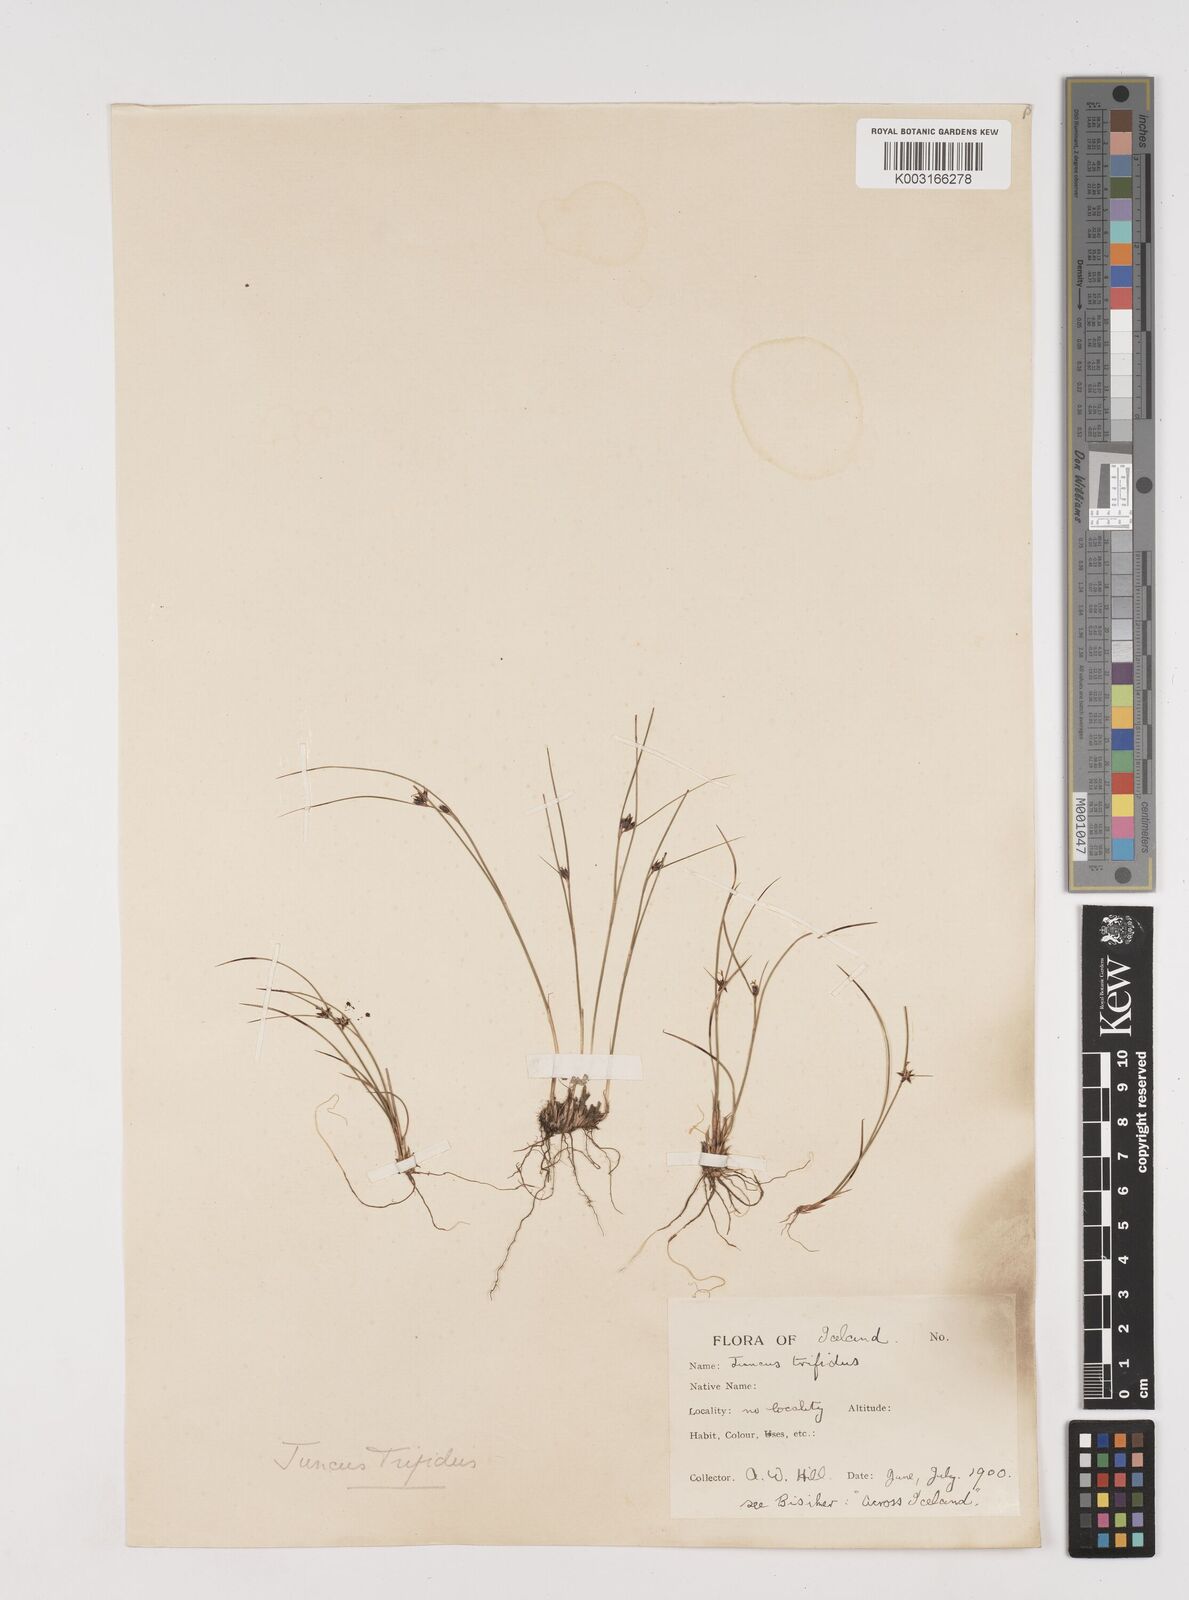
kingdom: Plantae
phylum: Tracheophyta
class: Liliopsida
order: Poales
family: Juncaceae
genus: Oreojuncus
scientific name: Oreojuncus trifidus
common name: Highland rush
